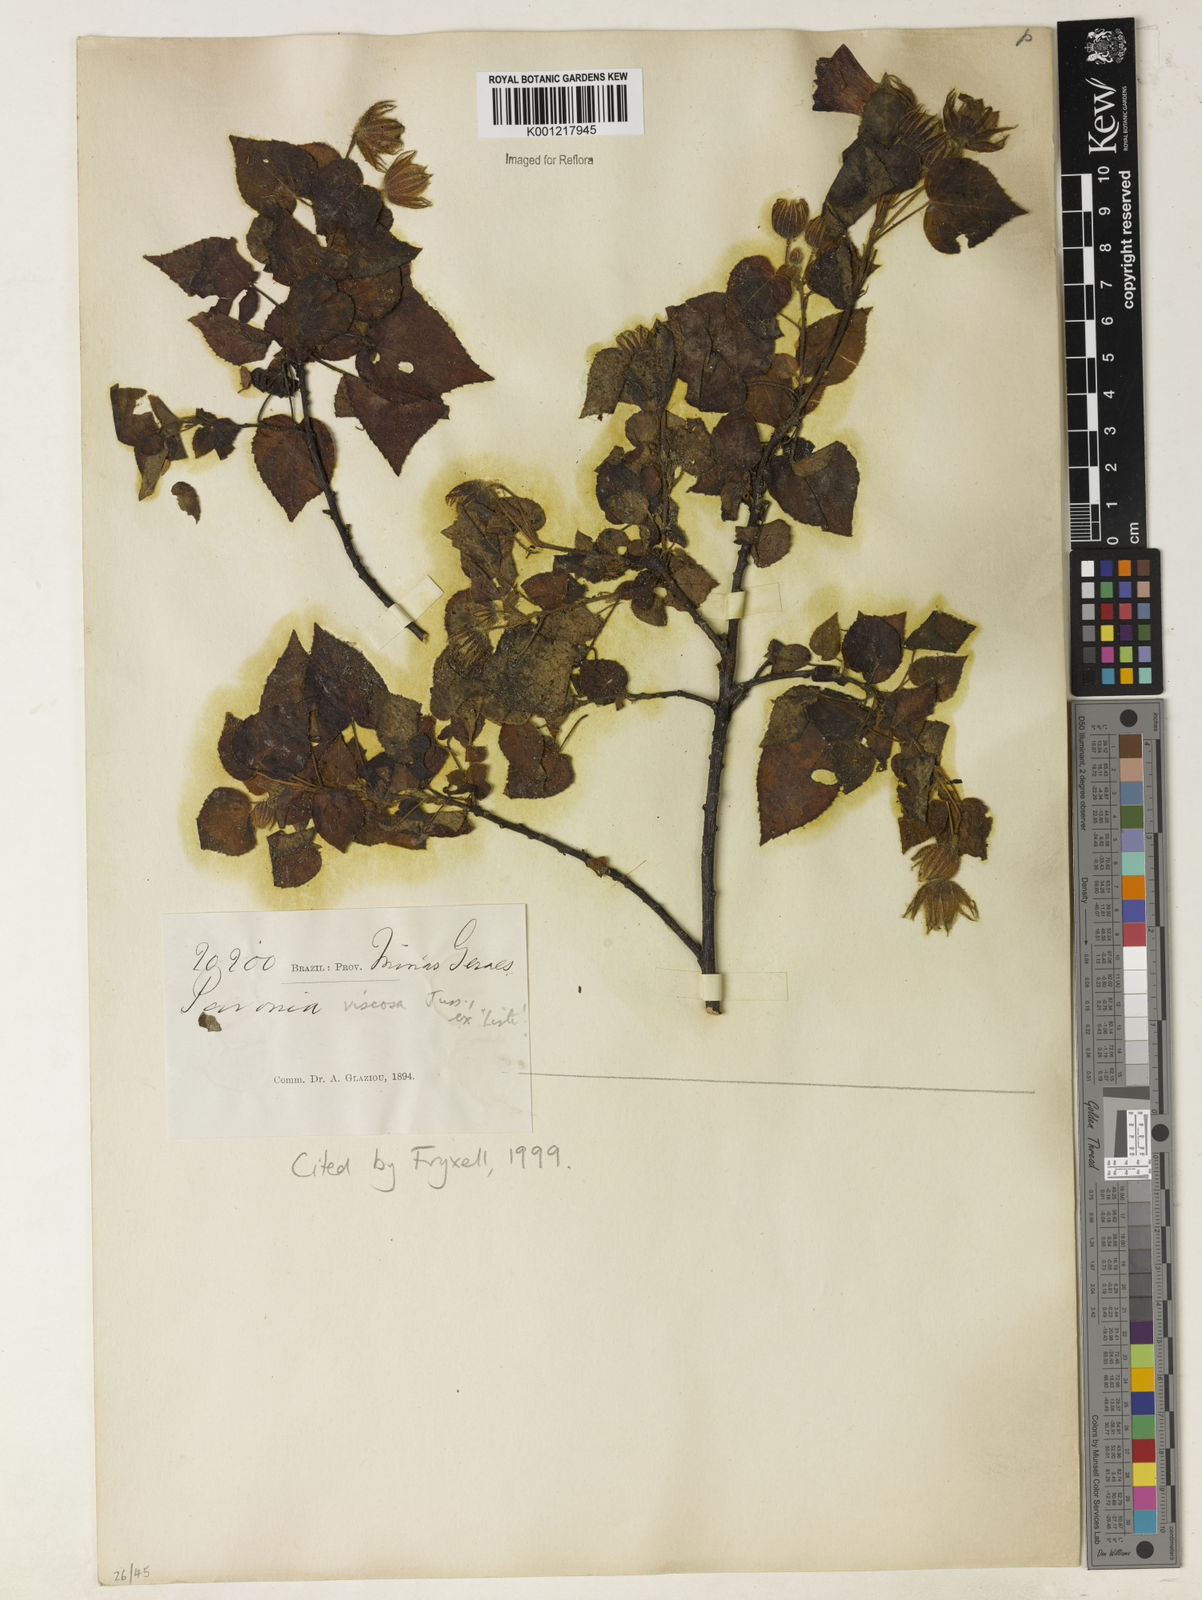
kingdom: Plantae
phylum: Tracheophyta
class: Magnoliopsida
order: Malvales
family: Malvaceae
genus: Pavonia
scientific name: Pavonia viscosa
